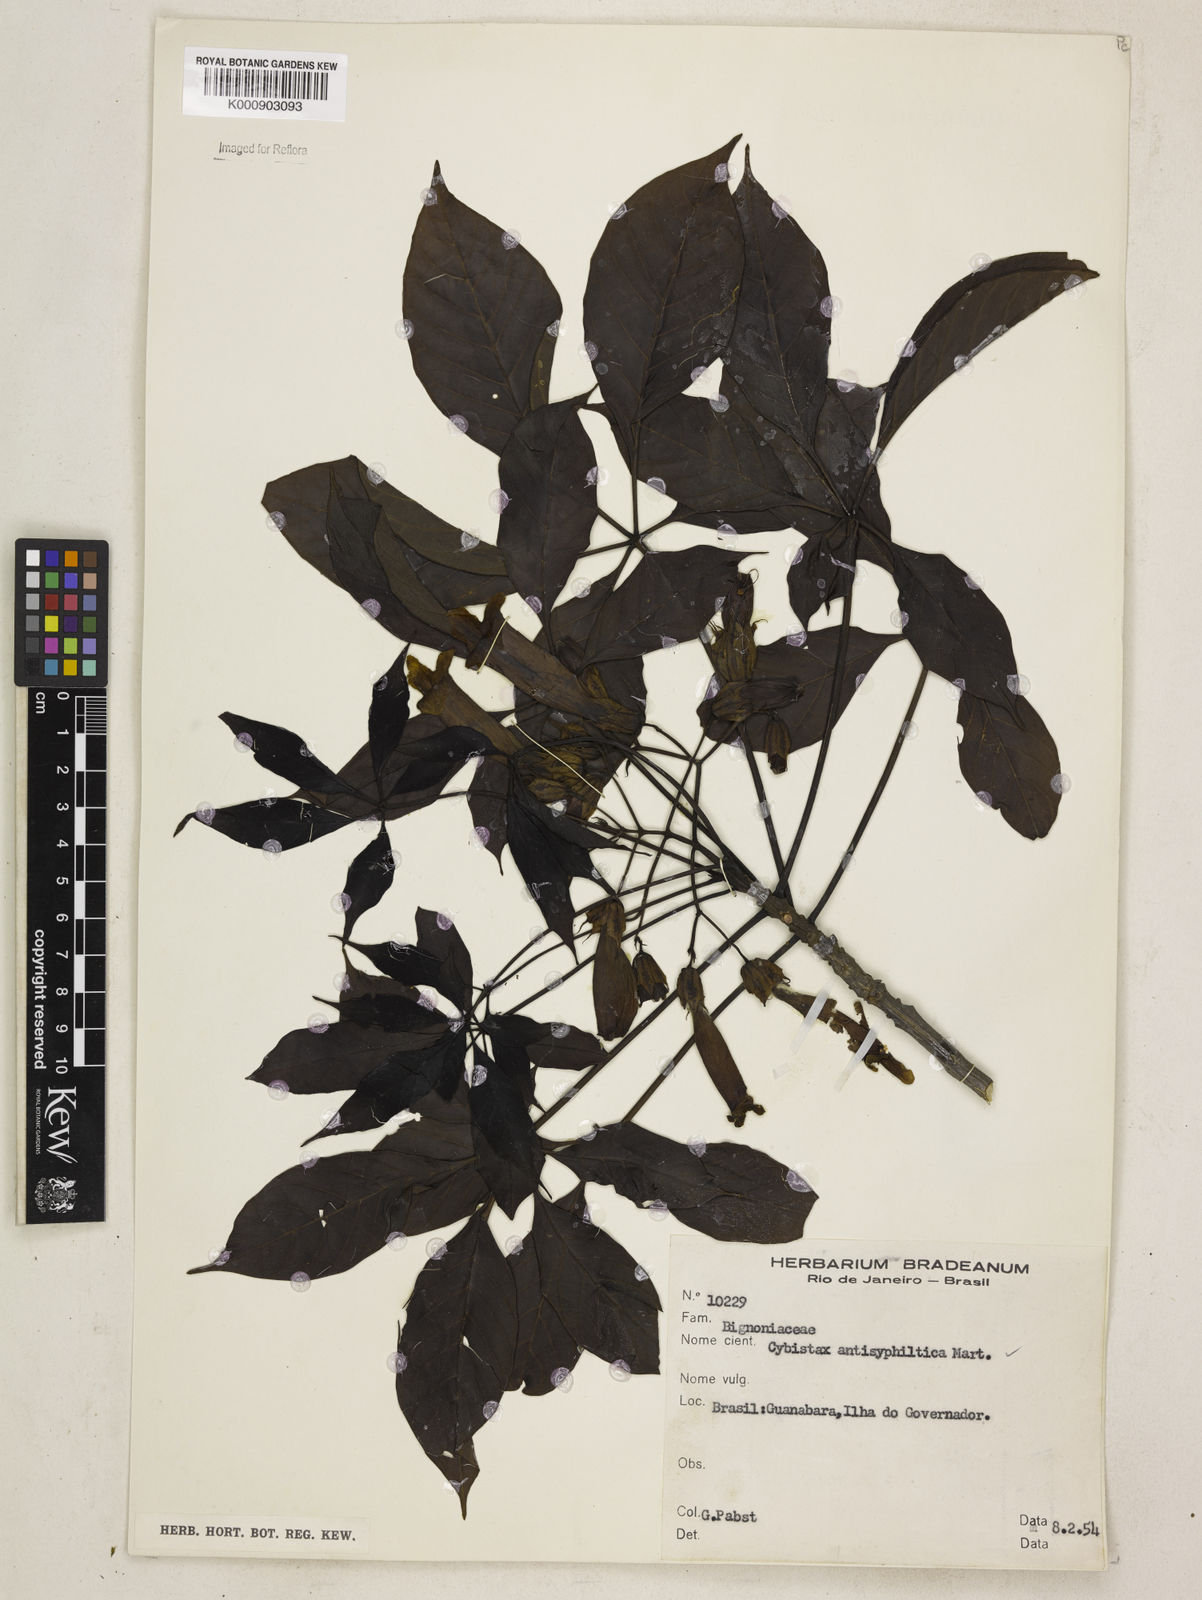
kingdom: Plantae
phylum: Tracheophyta
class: Magnoliopsida
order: Lamiales
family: Bignoniaceae
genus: Cybistax
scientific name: Cybistax antisyphilitica
